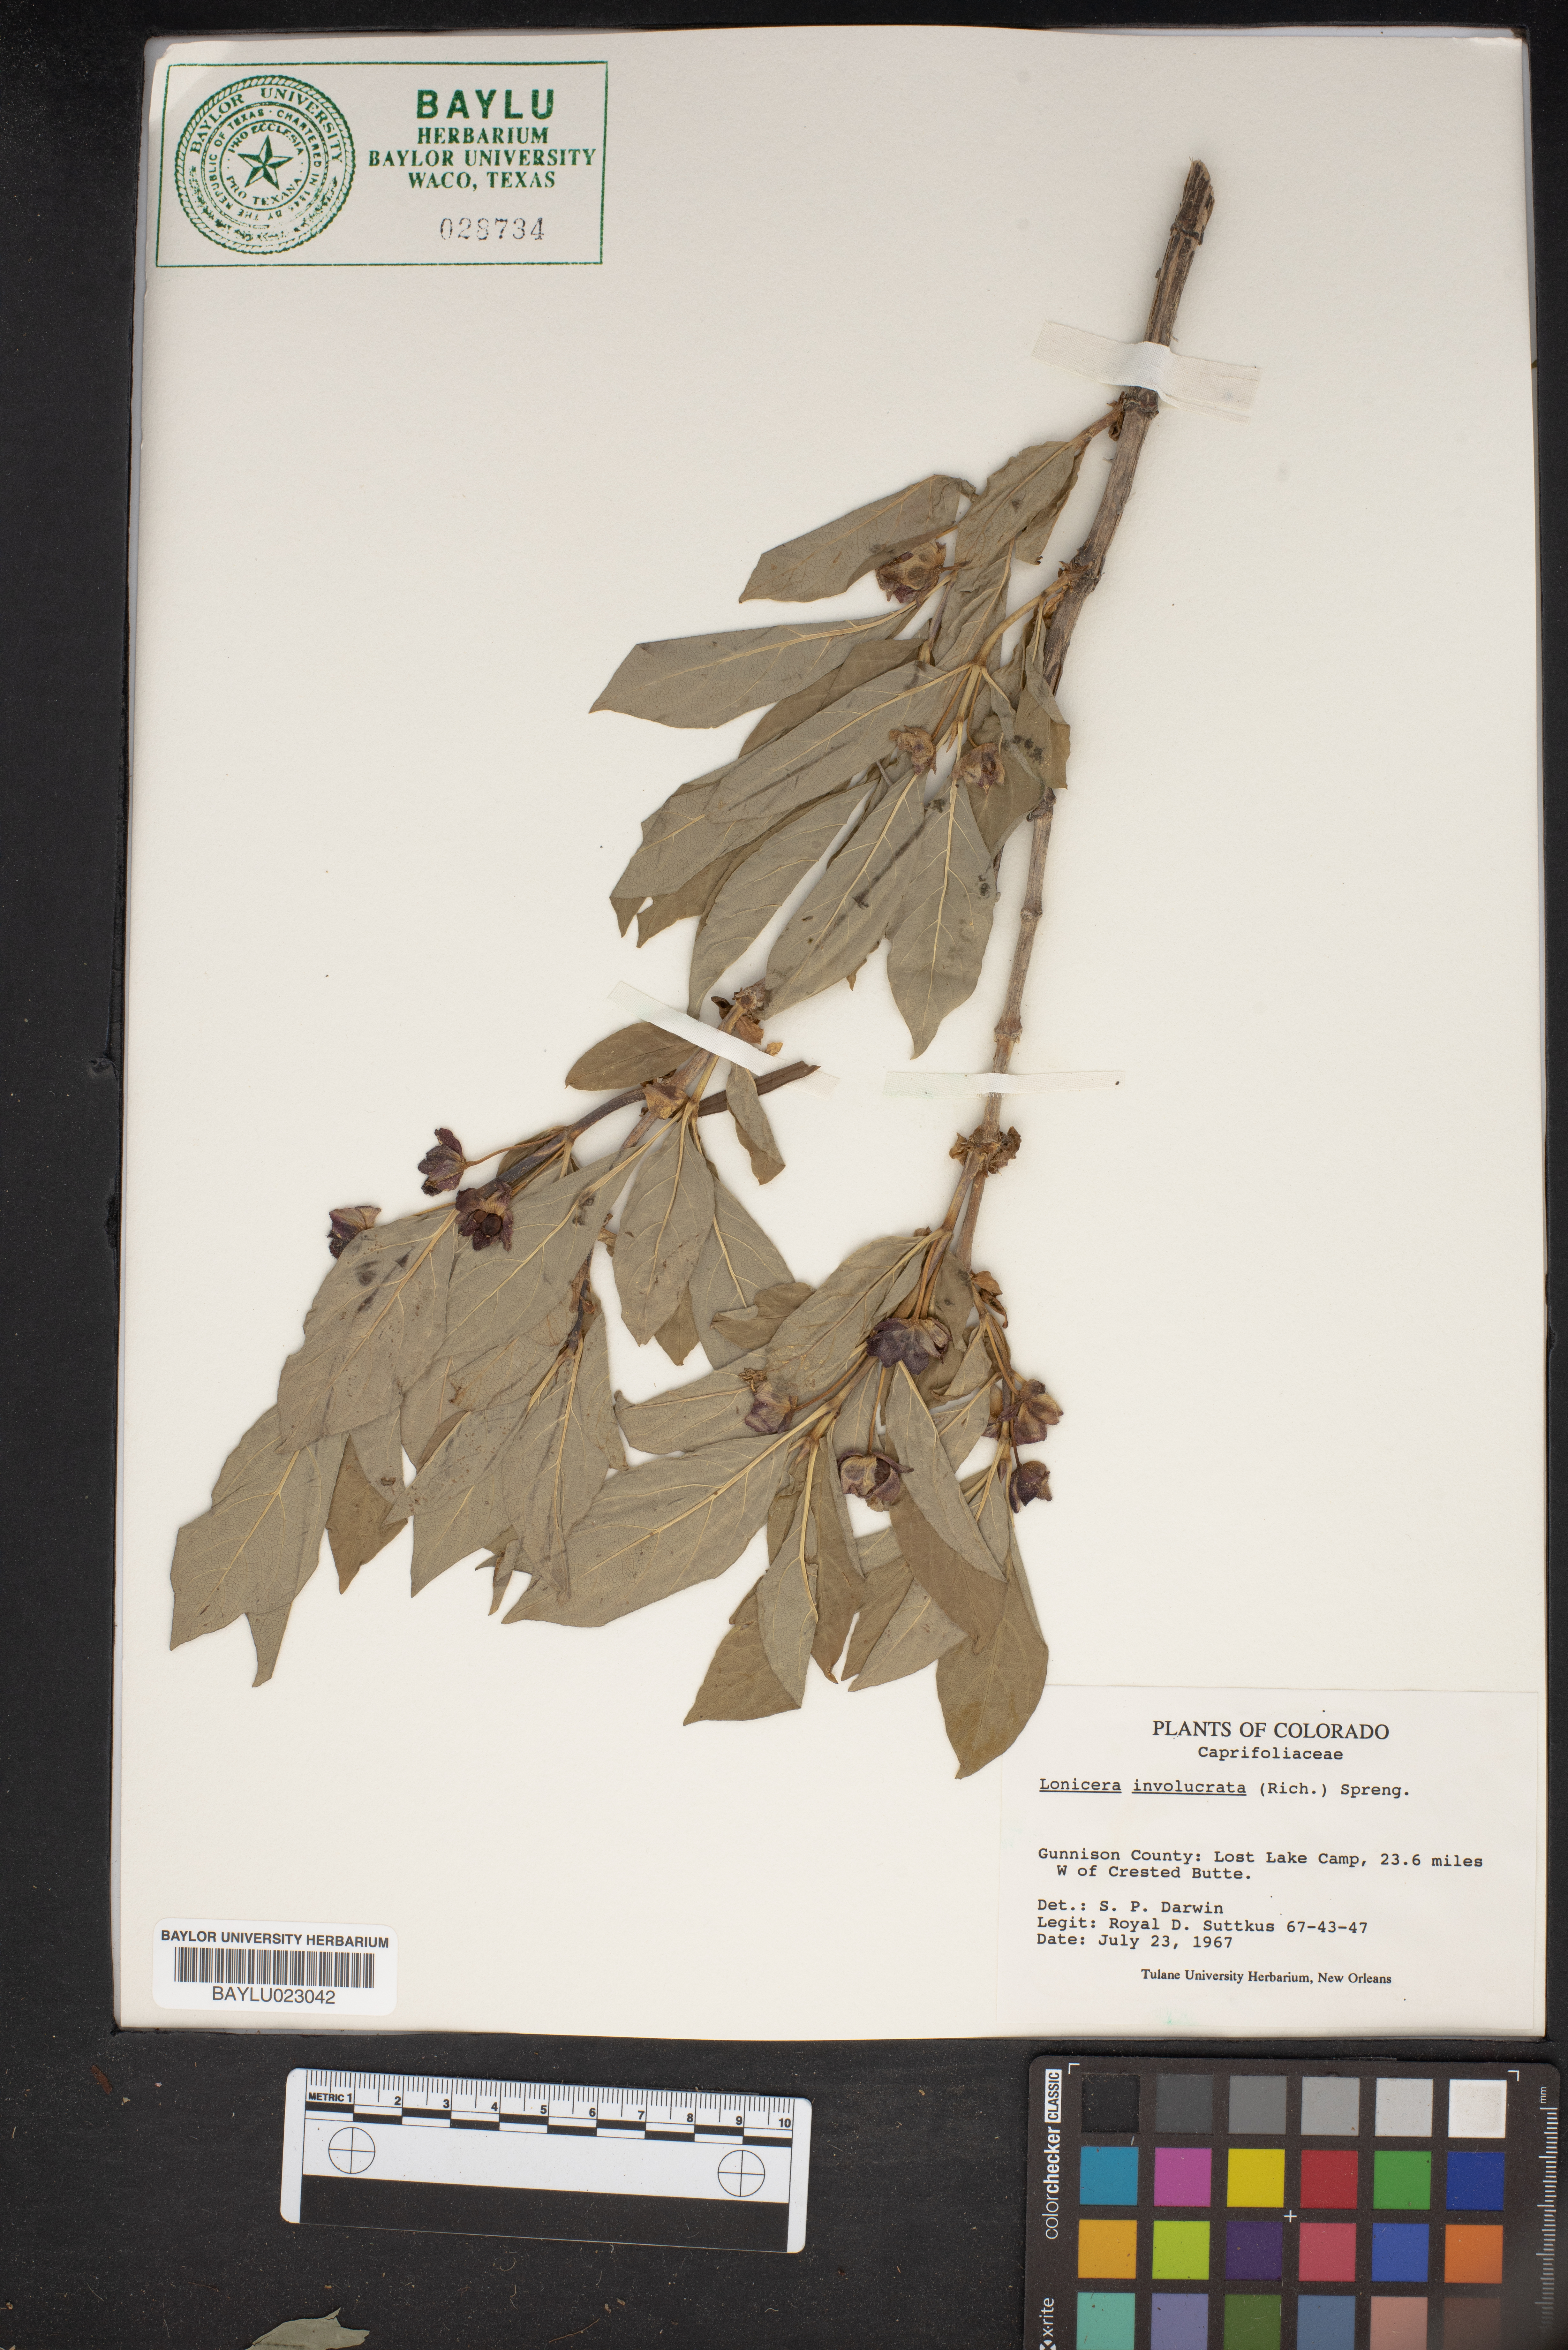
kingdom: Plantae
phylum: Tracheophyta
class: Magnoliopsida
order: Dipsacales
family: Caprifoliaceae
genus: Lonicera
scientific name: Lonicera involucrata
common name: Californian honeysuckle
